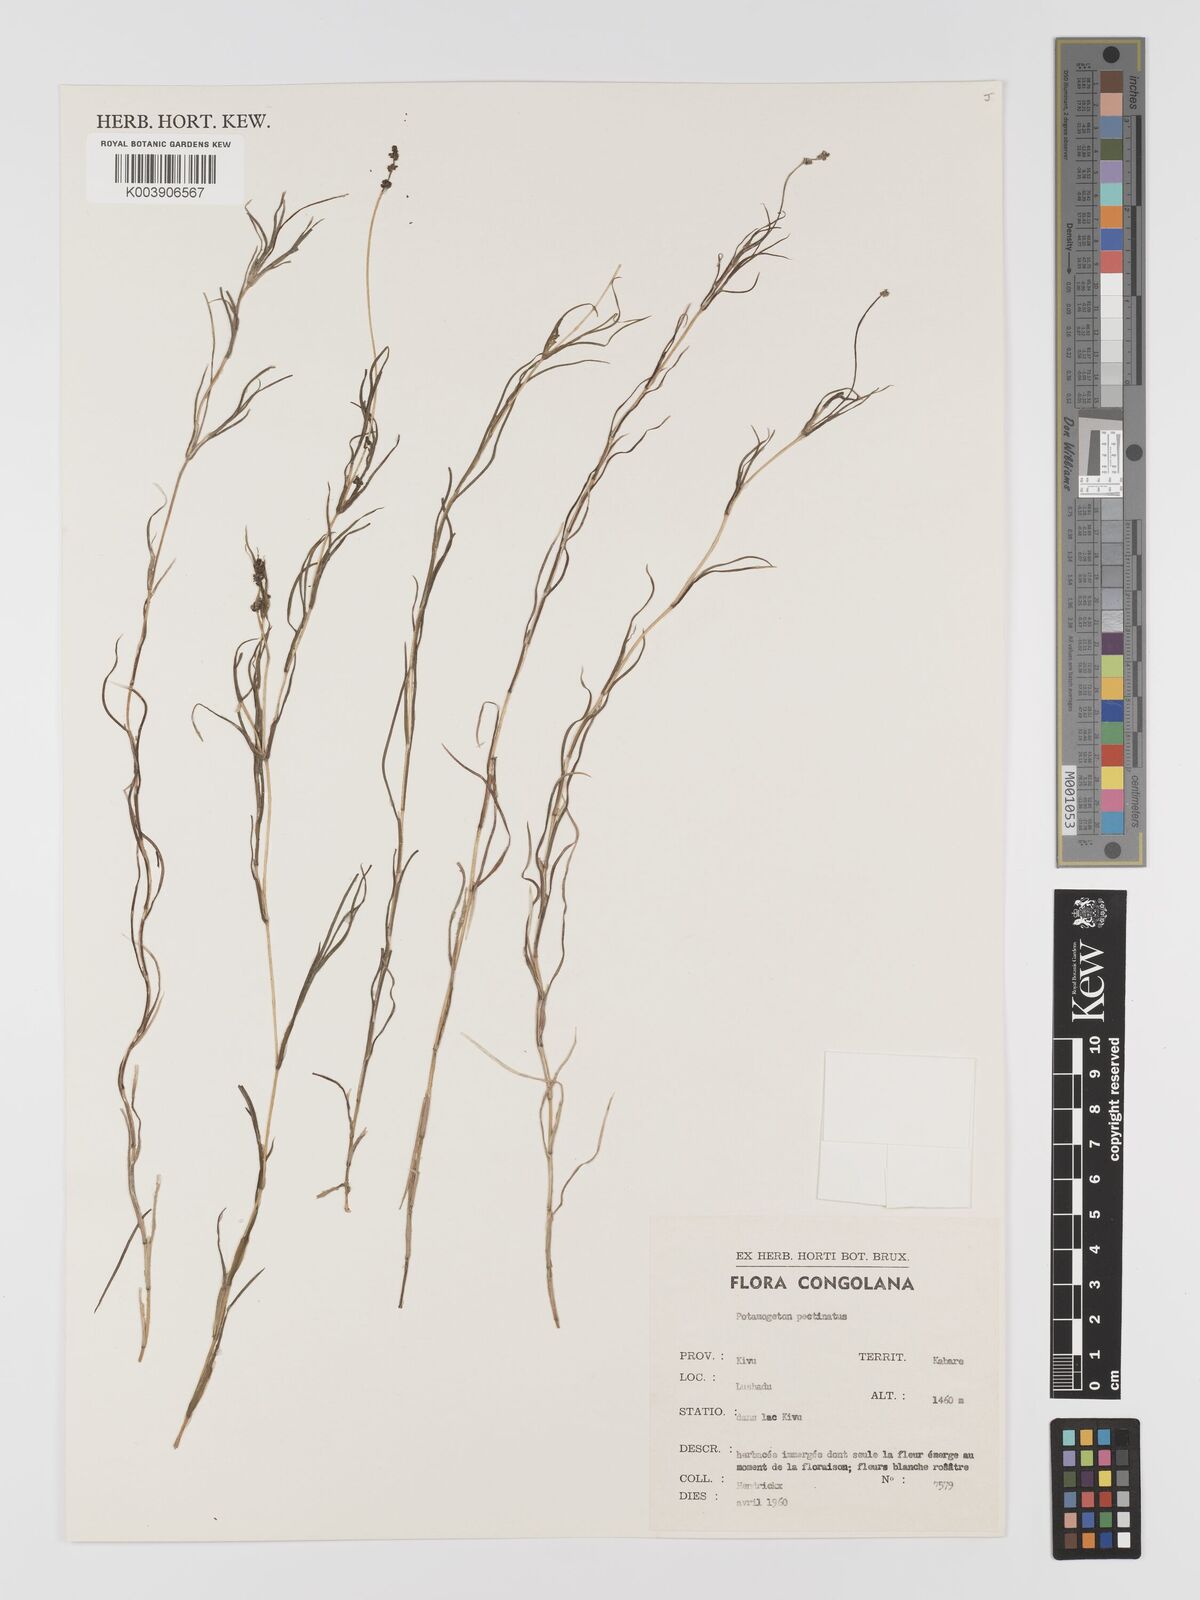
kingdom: Plantae
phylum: Tracheophyta
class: Liliopsida
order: Alismatales
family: Potamogetonaceae
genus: Stuckenia
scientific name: Stuckenia pectinata
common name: Sago pondweed
